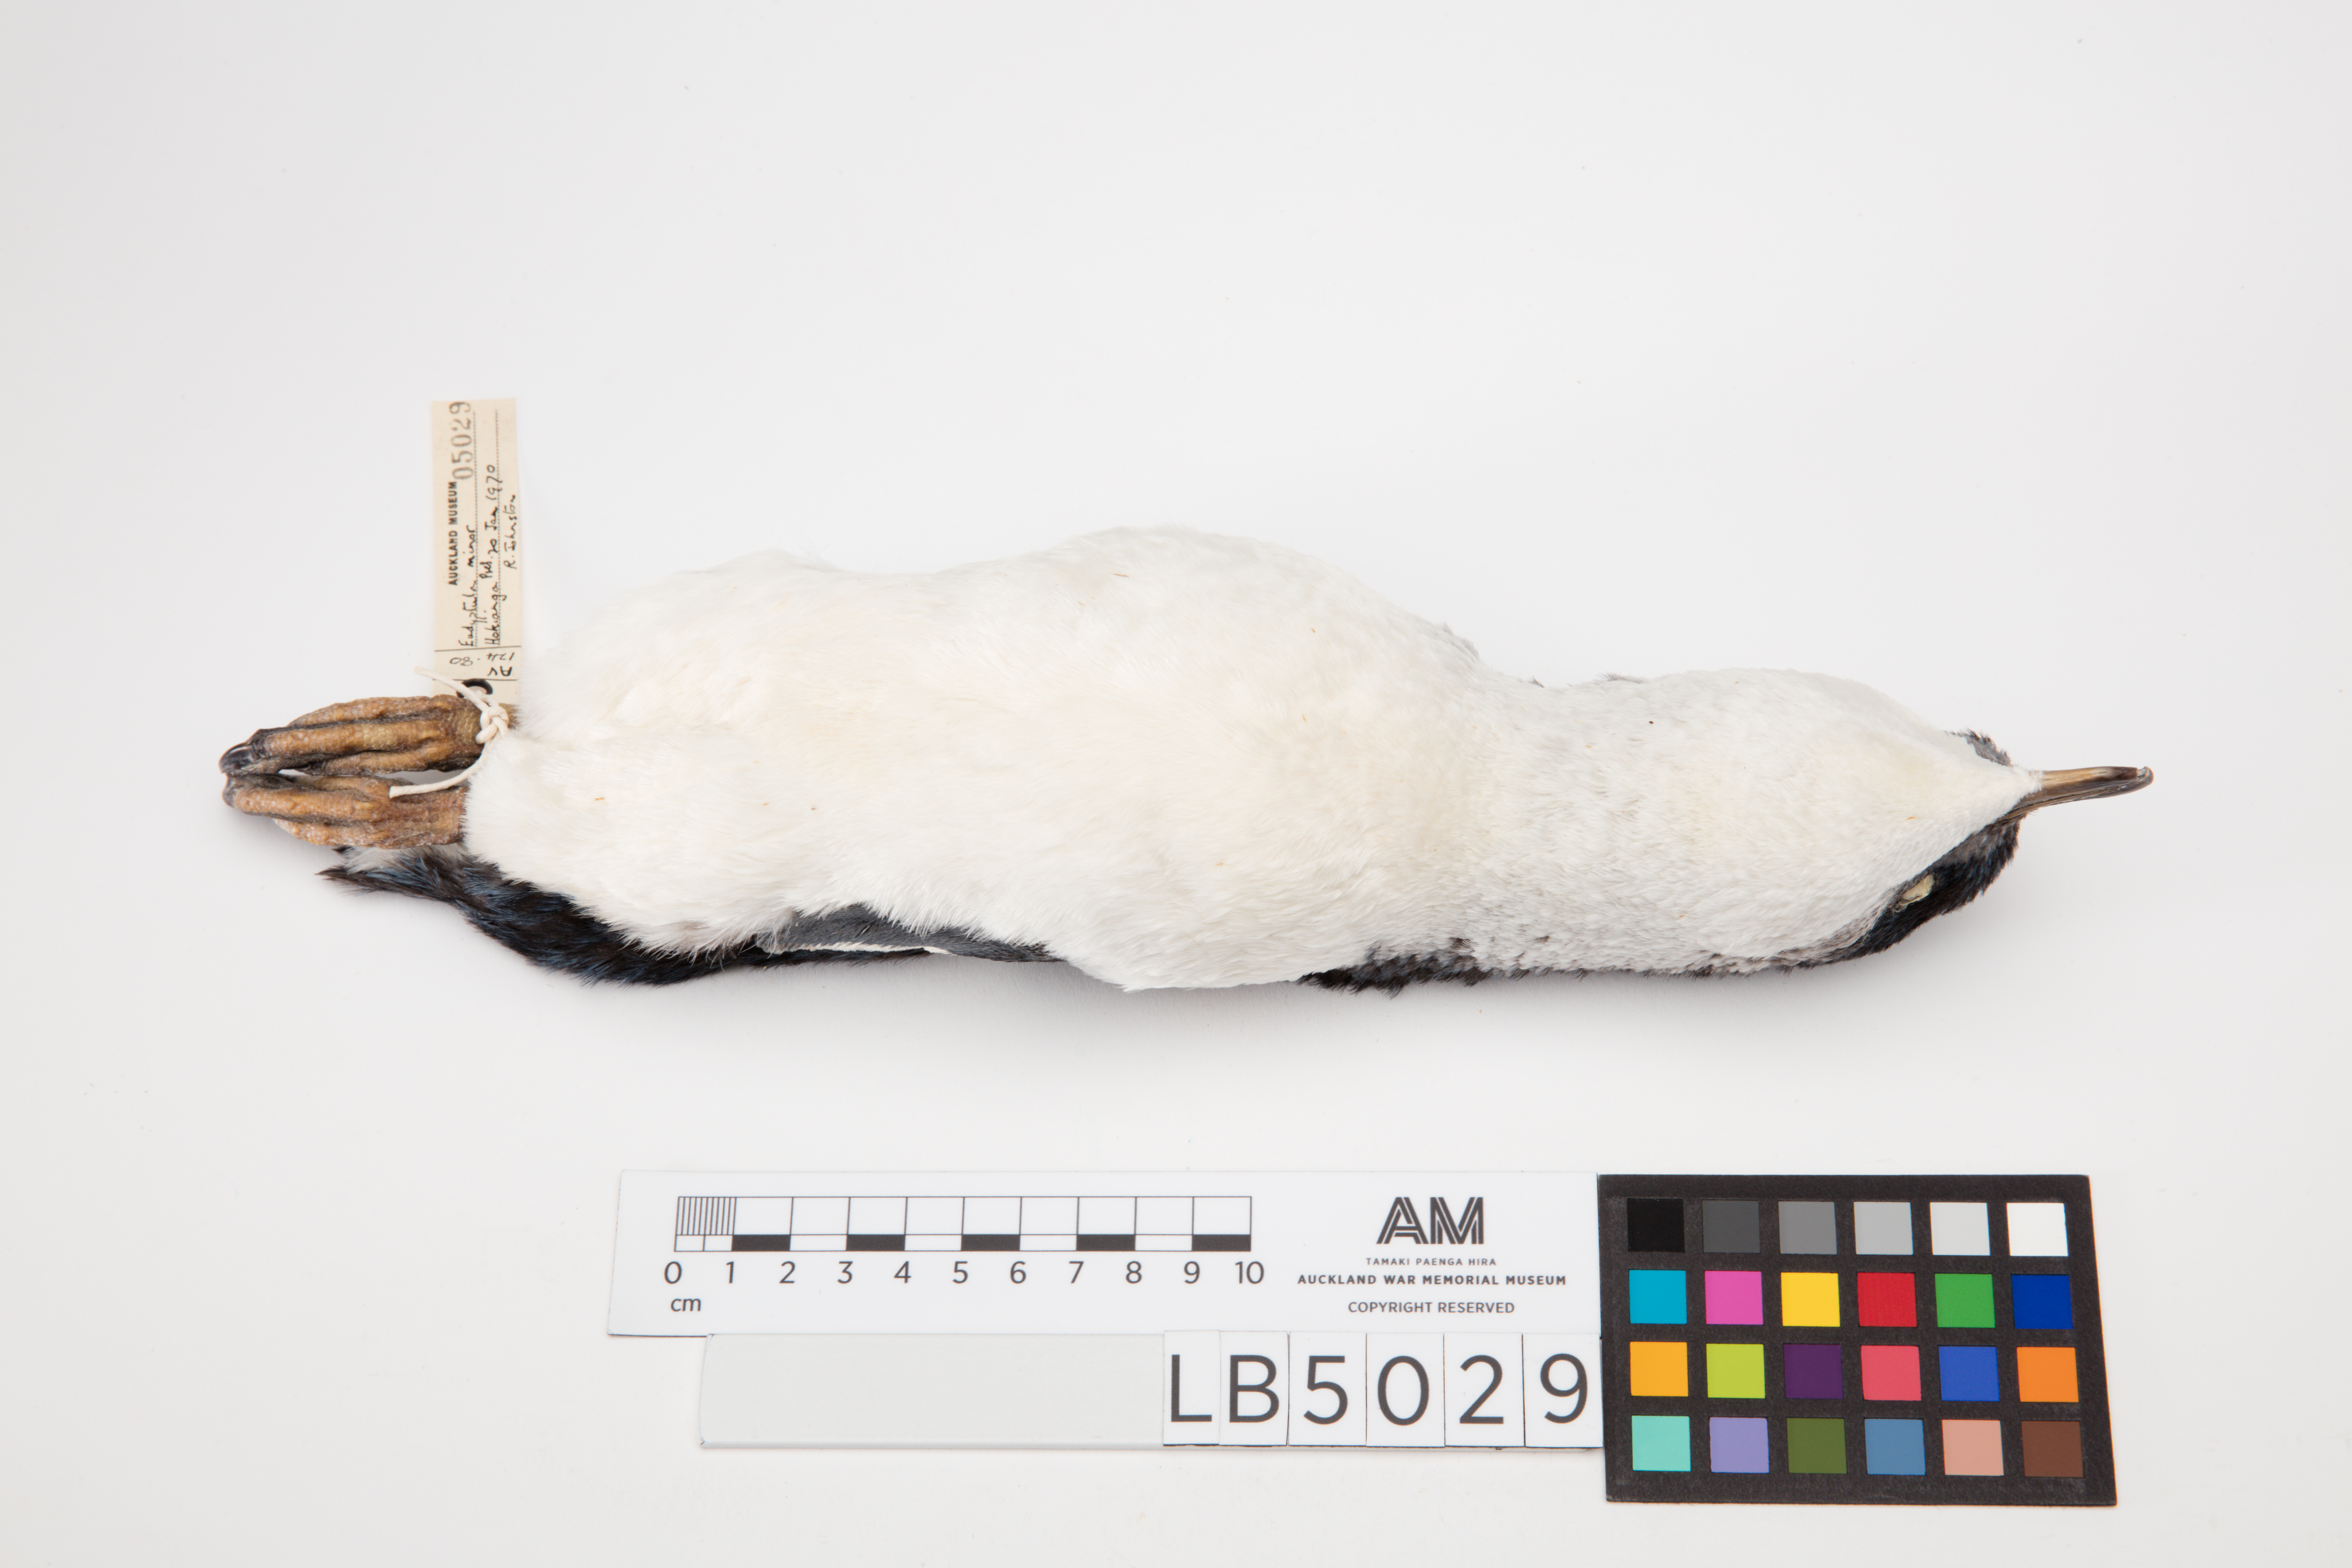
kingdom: Animalia
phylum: Chordata
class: Aves
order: Sphenisciformes
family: Spheniscidae
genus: Eudyptula
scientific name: Eudyptula minor
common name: Little penguin
